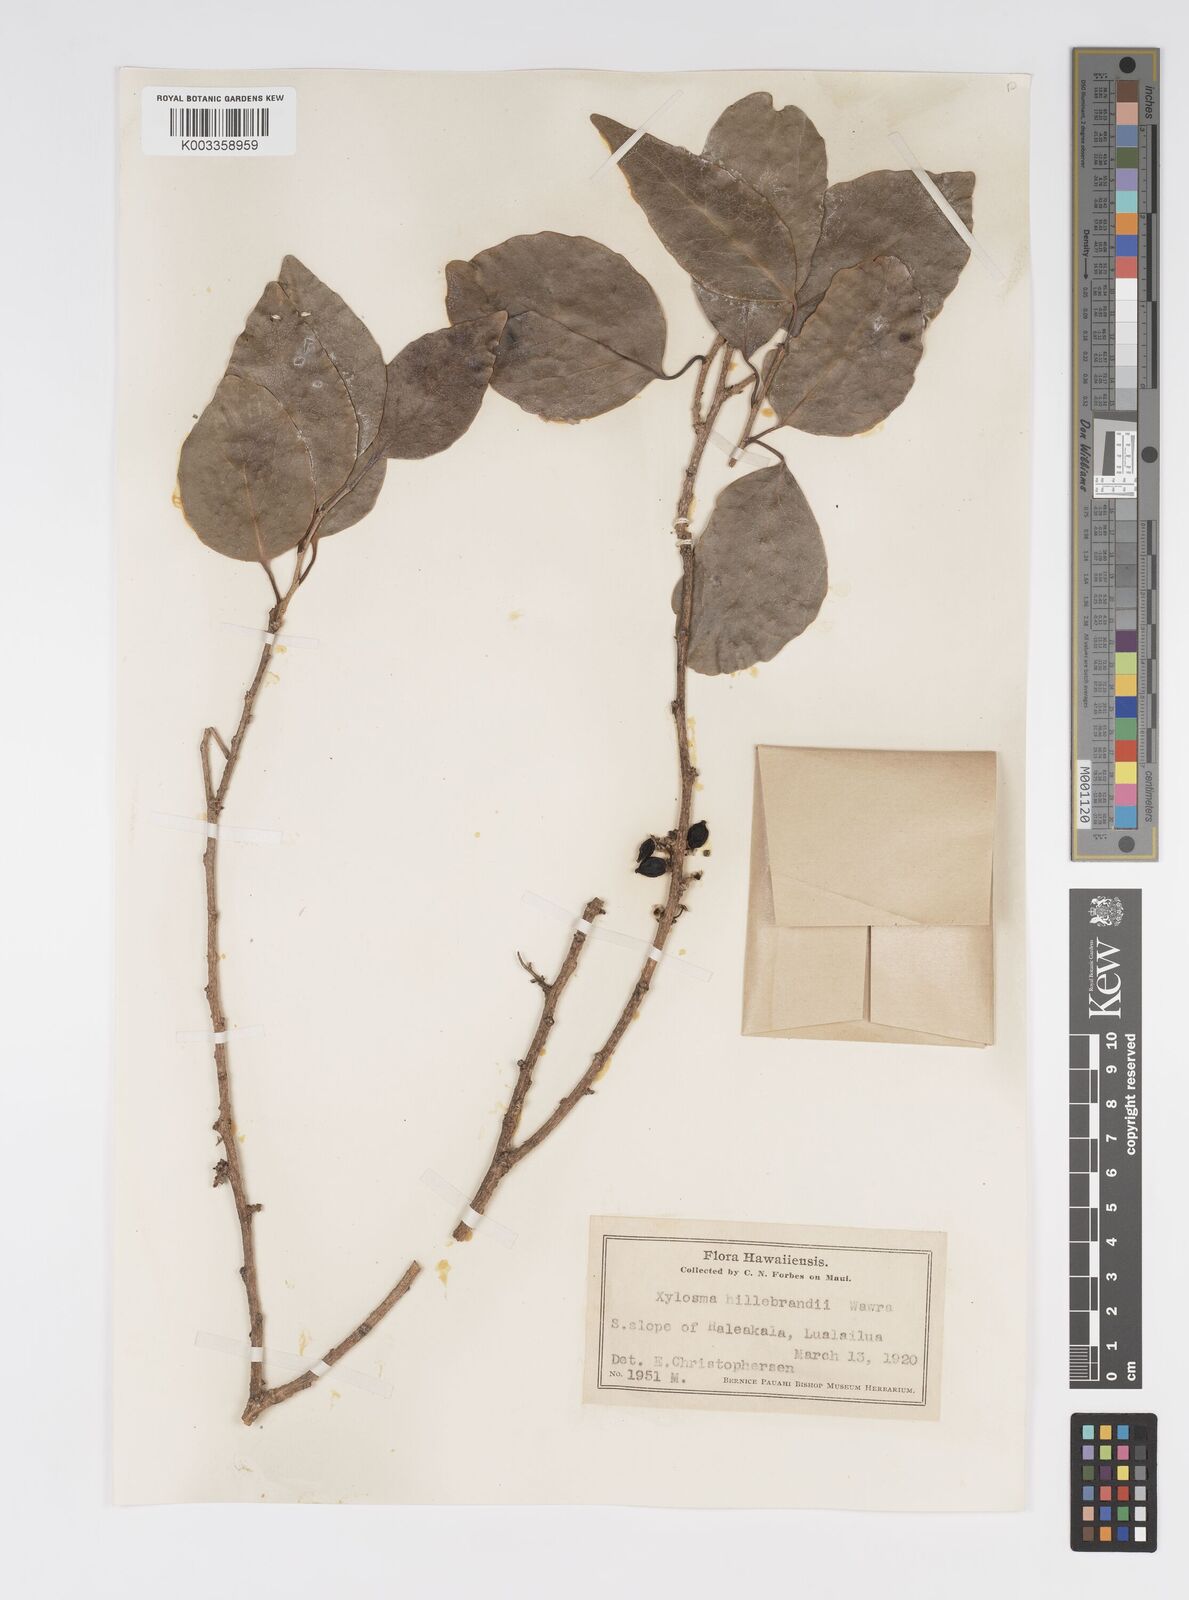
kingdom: Plantae
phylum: Tracheophyta
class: Magnoliopsida
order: Malpighiales
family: Salicaceae
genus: Xylosma
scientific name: Xylosma hawaiense
